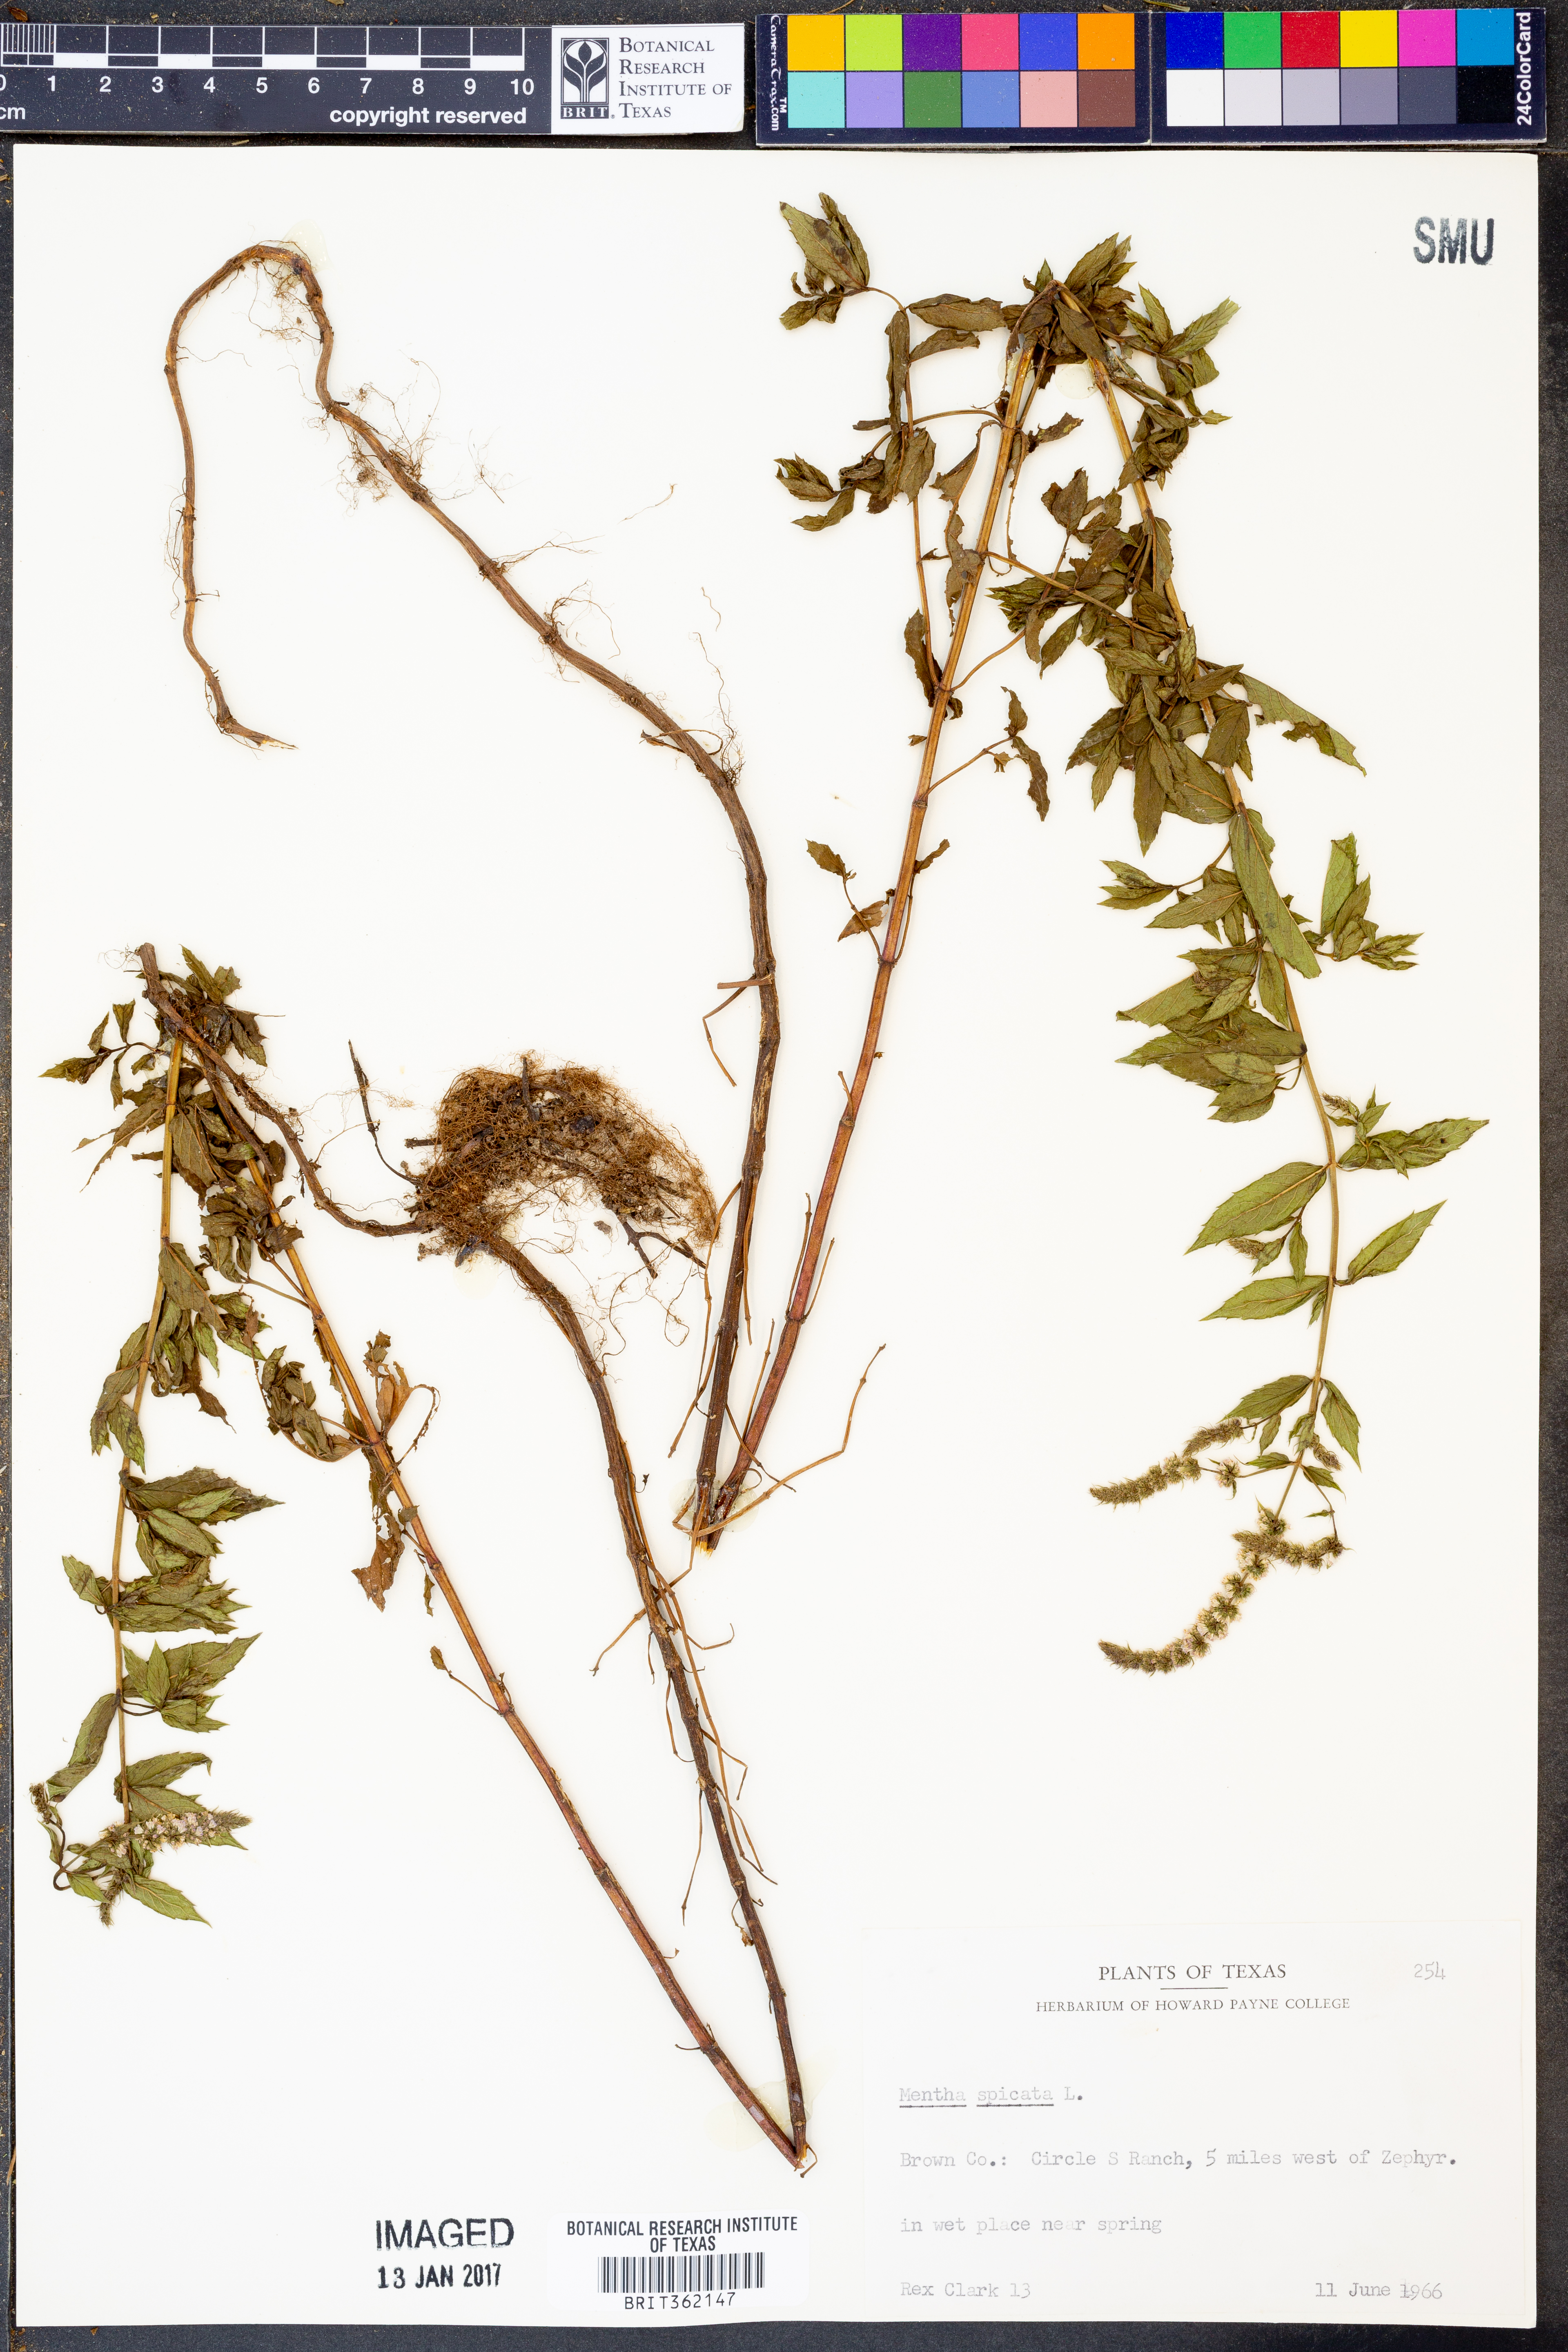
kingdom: Plantae
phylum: Tracheophyta
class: Magnoliopsida
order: Lamiales
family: Lamiaceae
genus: Mentha
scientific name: Mentha spicata
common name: Spearmint
